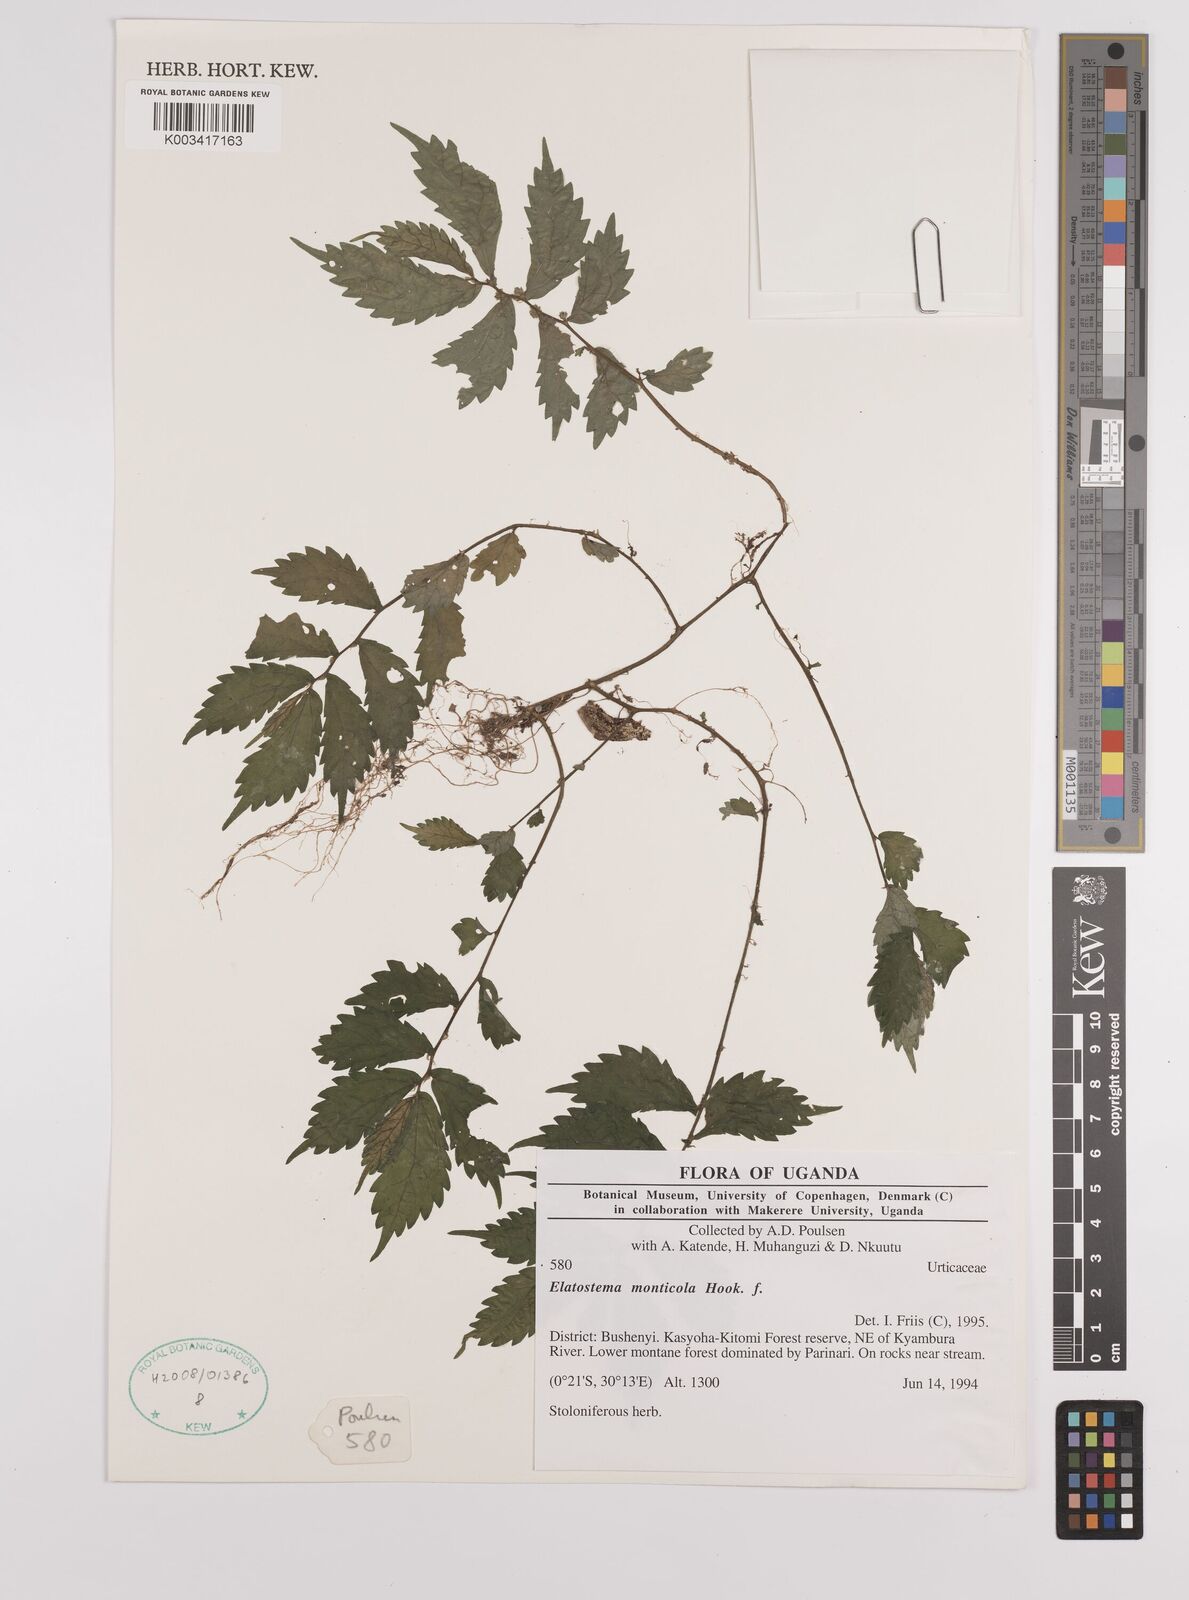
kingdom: Plantae
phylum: Tracheophyta
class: Magnoliopsida
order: Rosales
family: Urticaceae
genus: Elatostema
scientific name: Elatostema monticola
